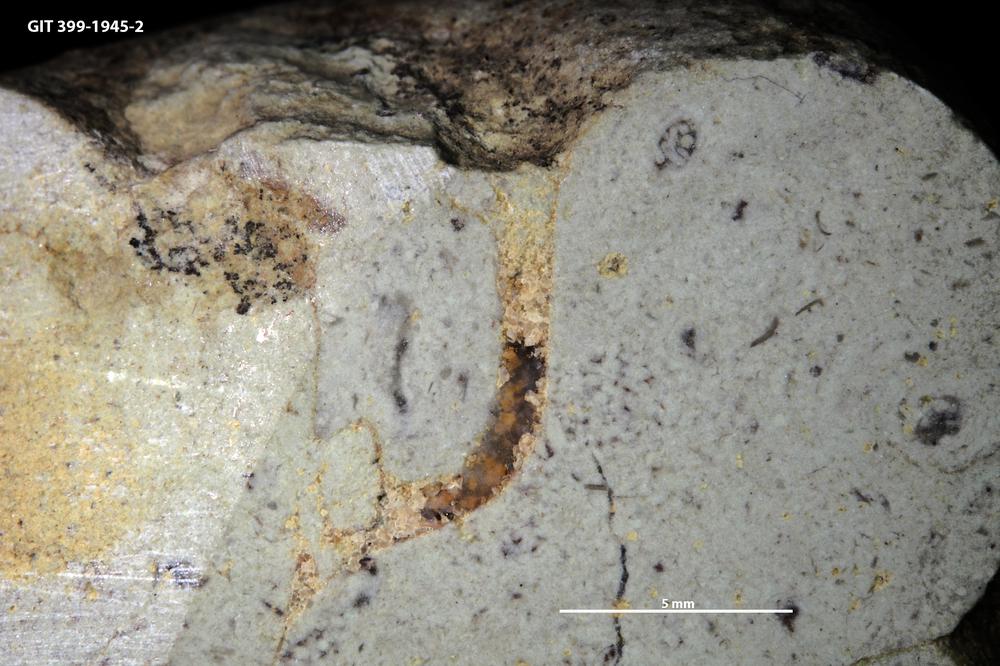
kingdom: Animalia
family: Coprulidae
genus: Coprulus
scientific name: Coprulus
